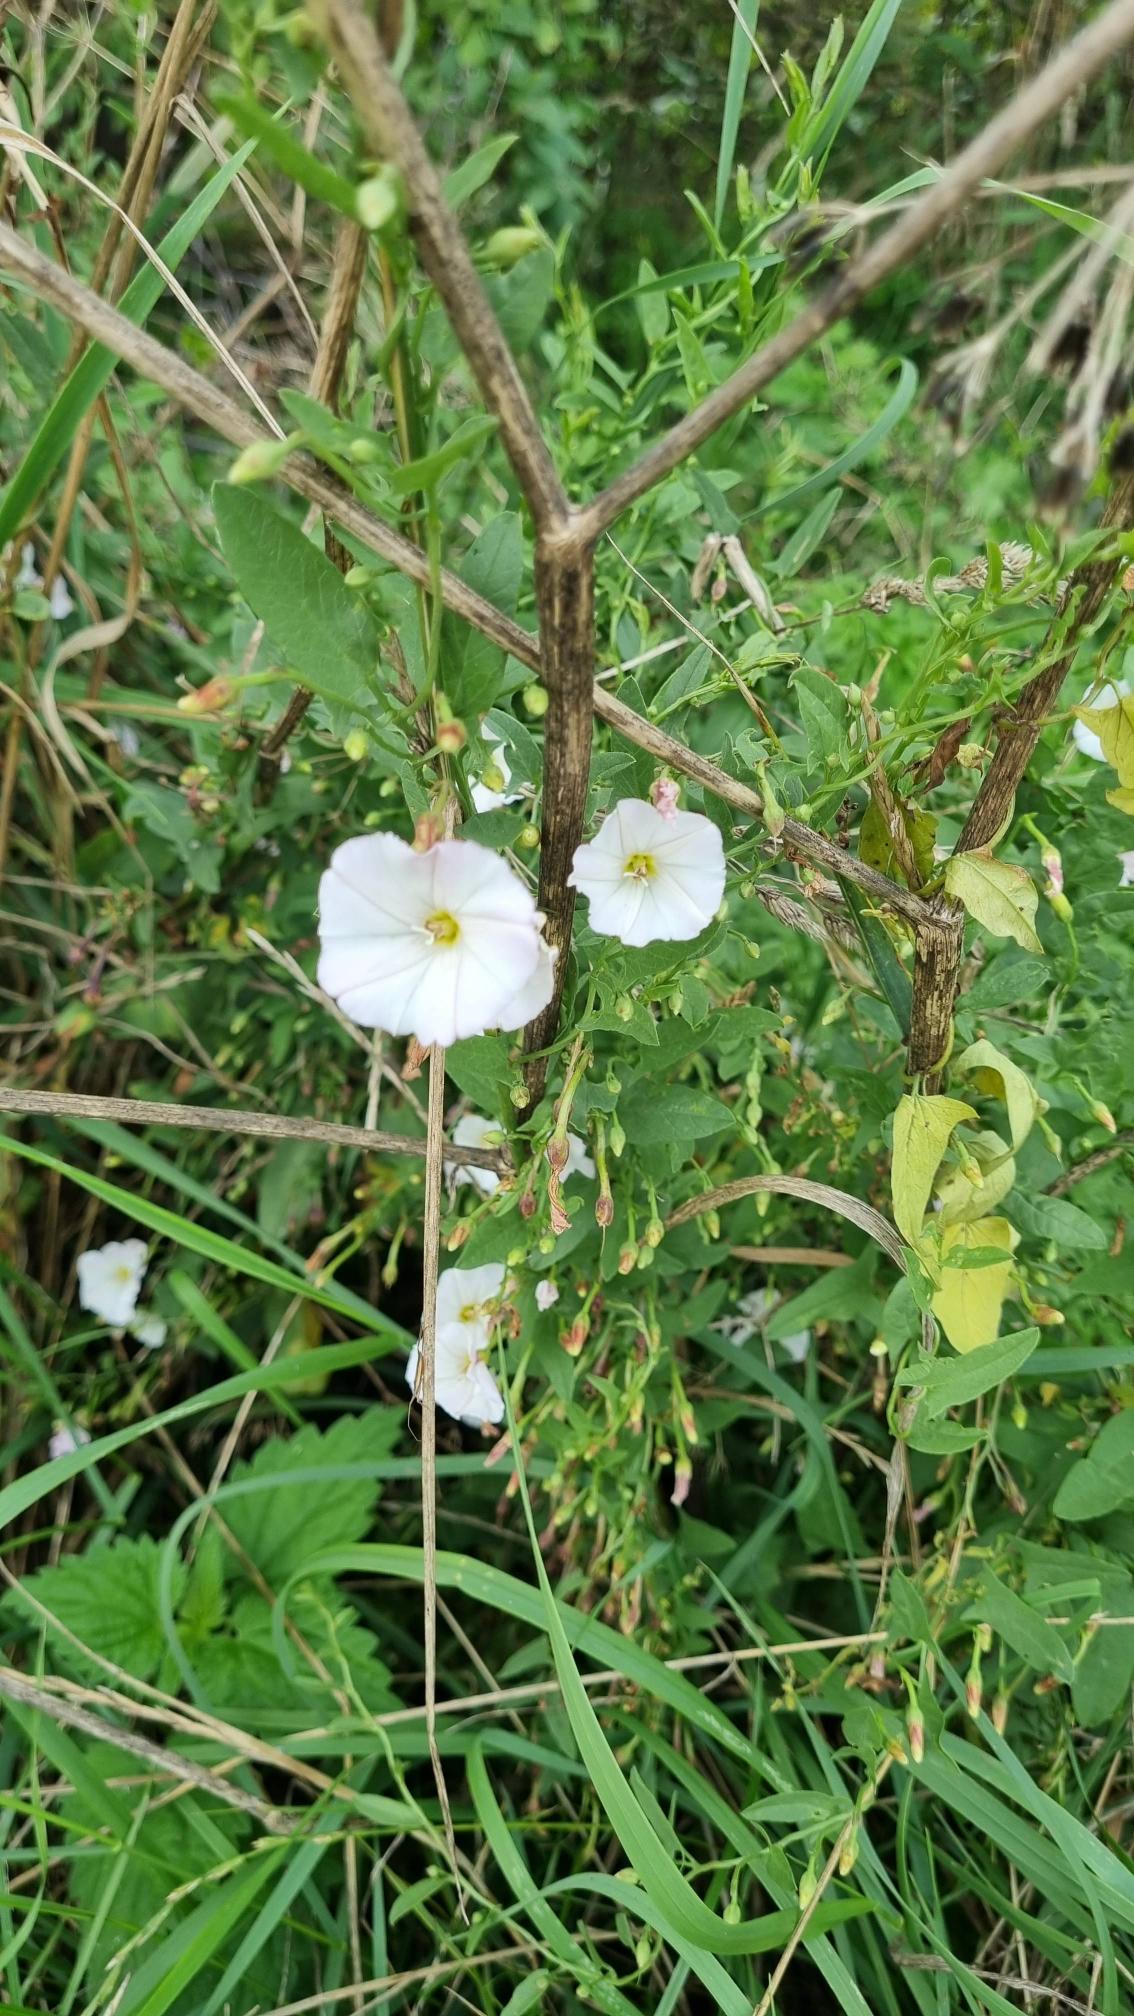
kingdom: Plantae
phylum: Tracheophyta
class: Magnoliopsida
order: Solanales
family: Convolvulaceae
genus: Convolvulus
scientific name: Convolvulus arvensis
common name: Ager-snerle
